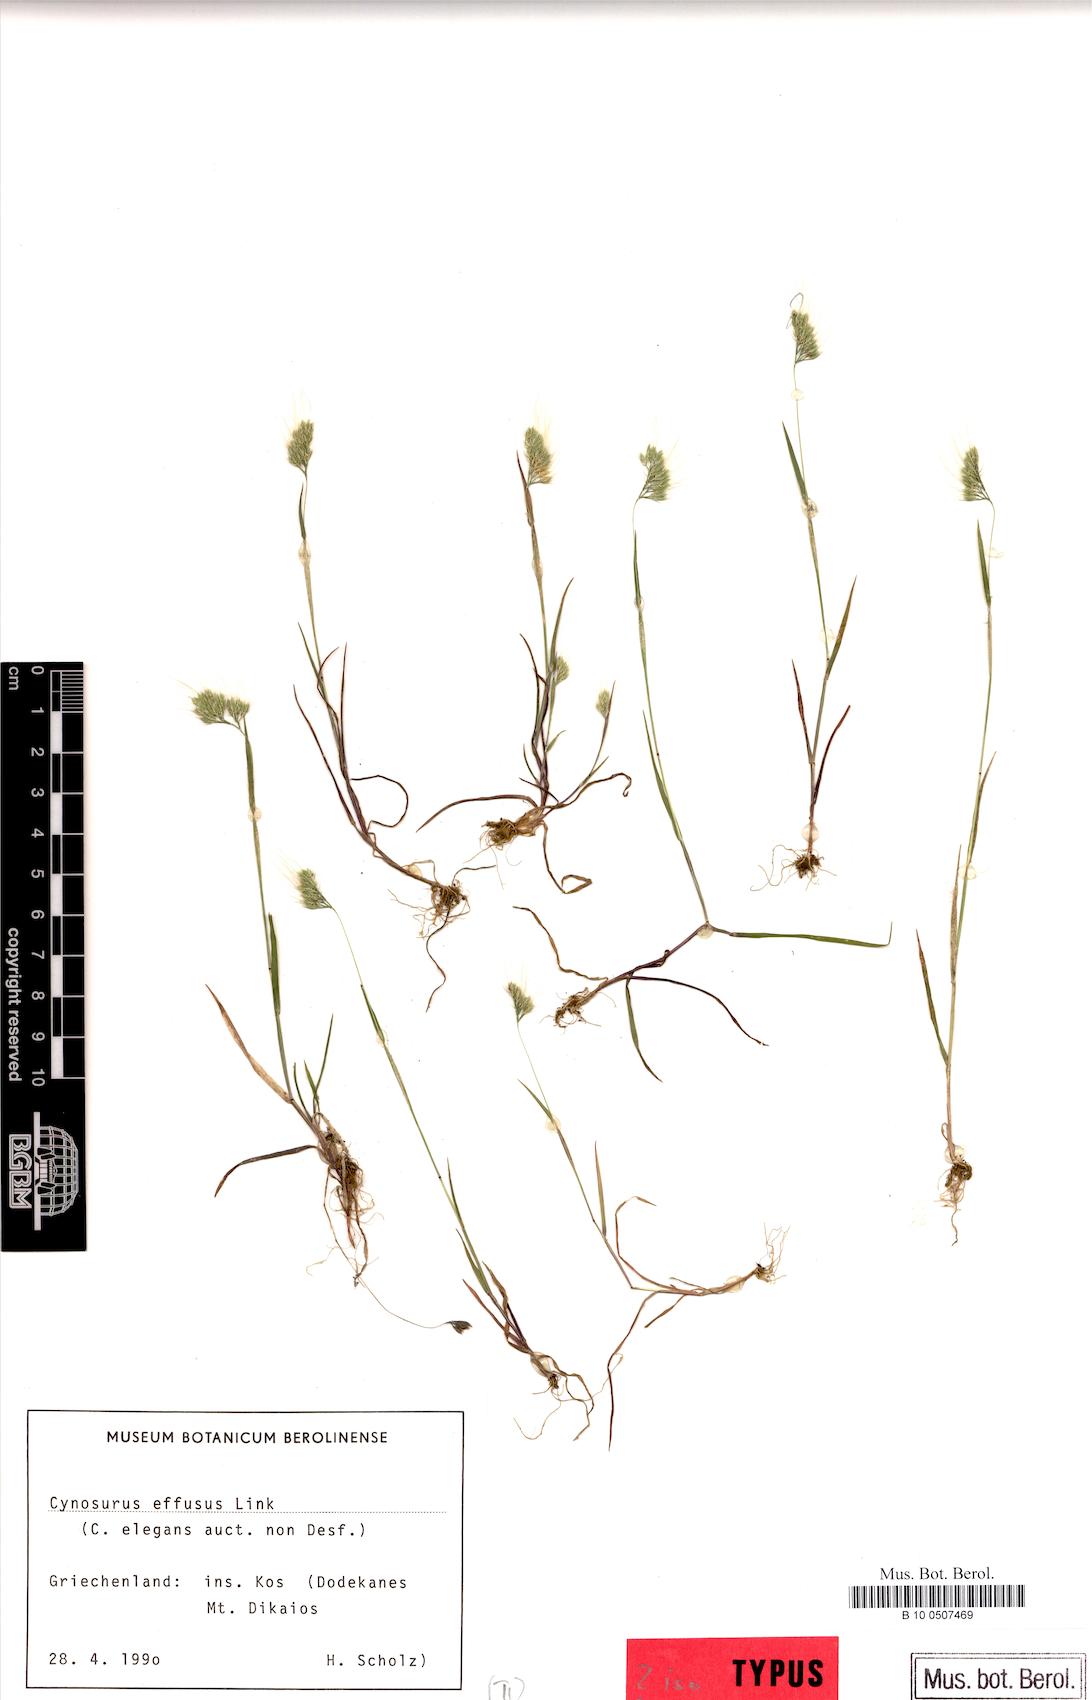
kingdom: Plantae
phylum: Tracheophyta
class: Liliopsida
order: Poales
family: Poaceae
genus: Cynosurus
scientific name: Cynosurus fertilis
